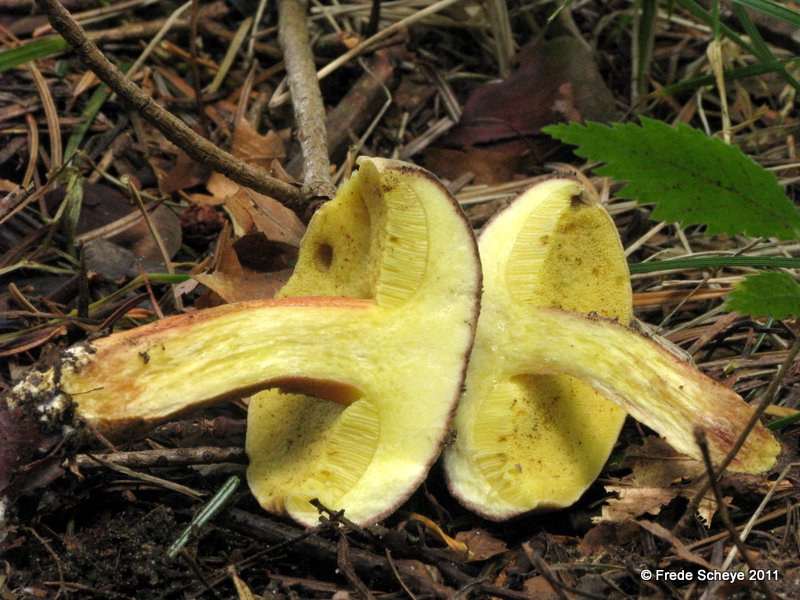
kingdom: Fungi
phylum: Basidiomycota
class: Agaricomycetes
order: Boletales
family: Boletaceae
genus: Xerocomus
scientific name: Xerocomus subtomentosus
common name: filtet rørhat
